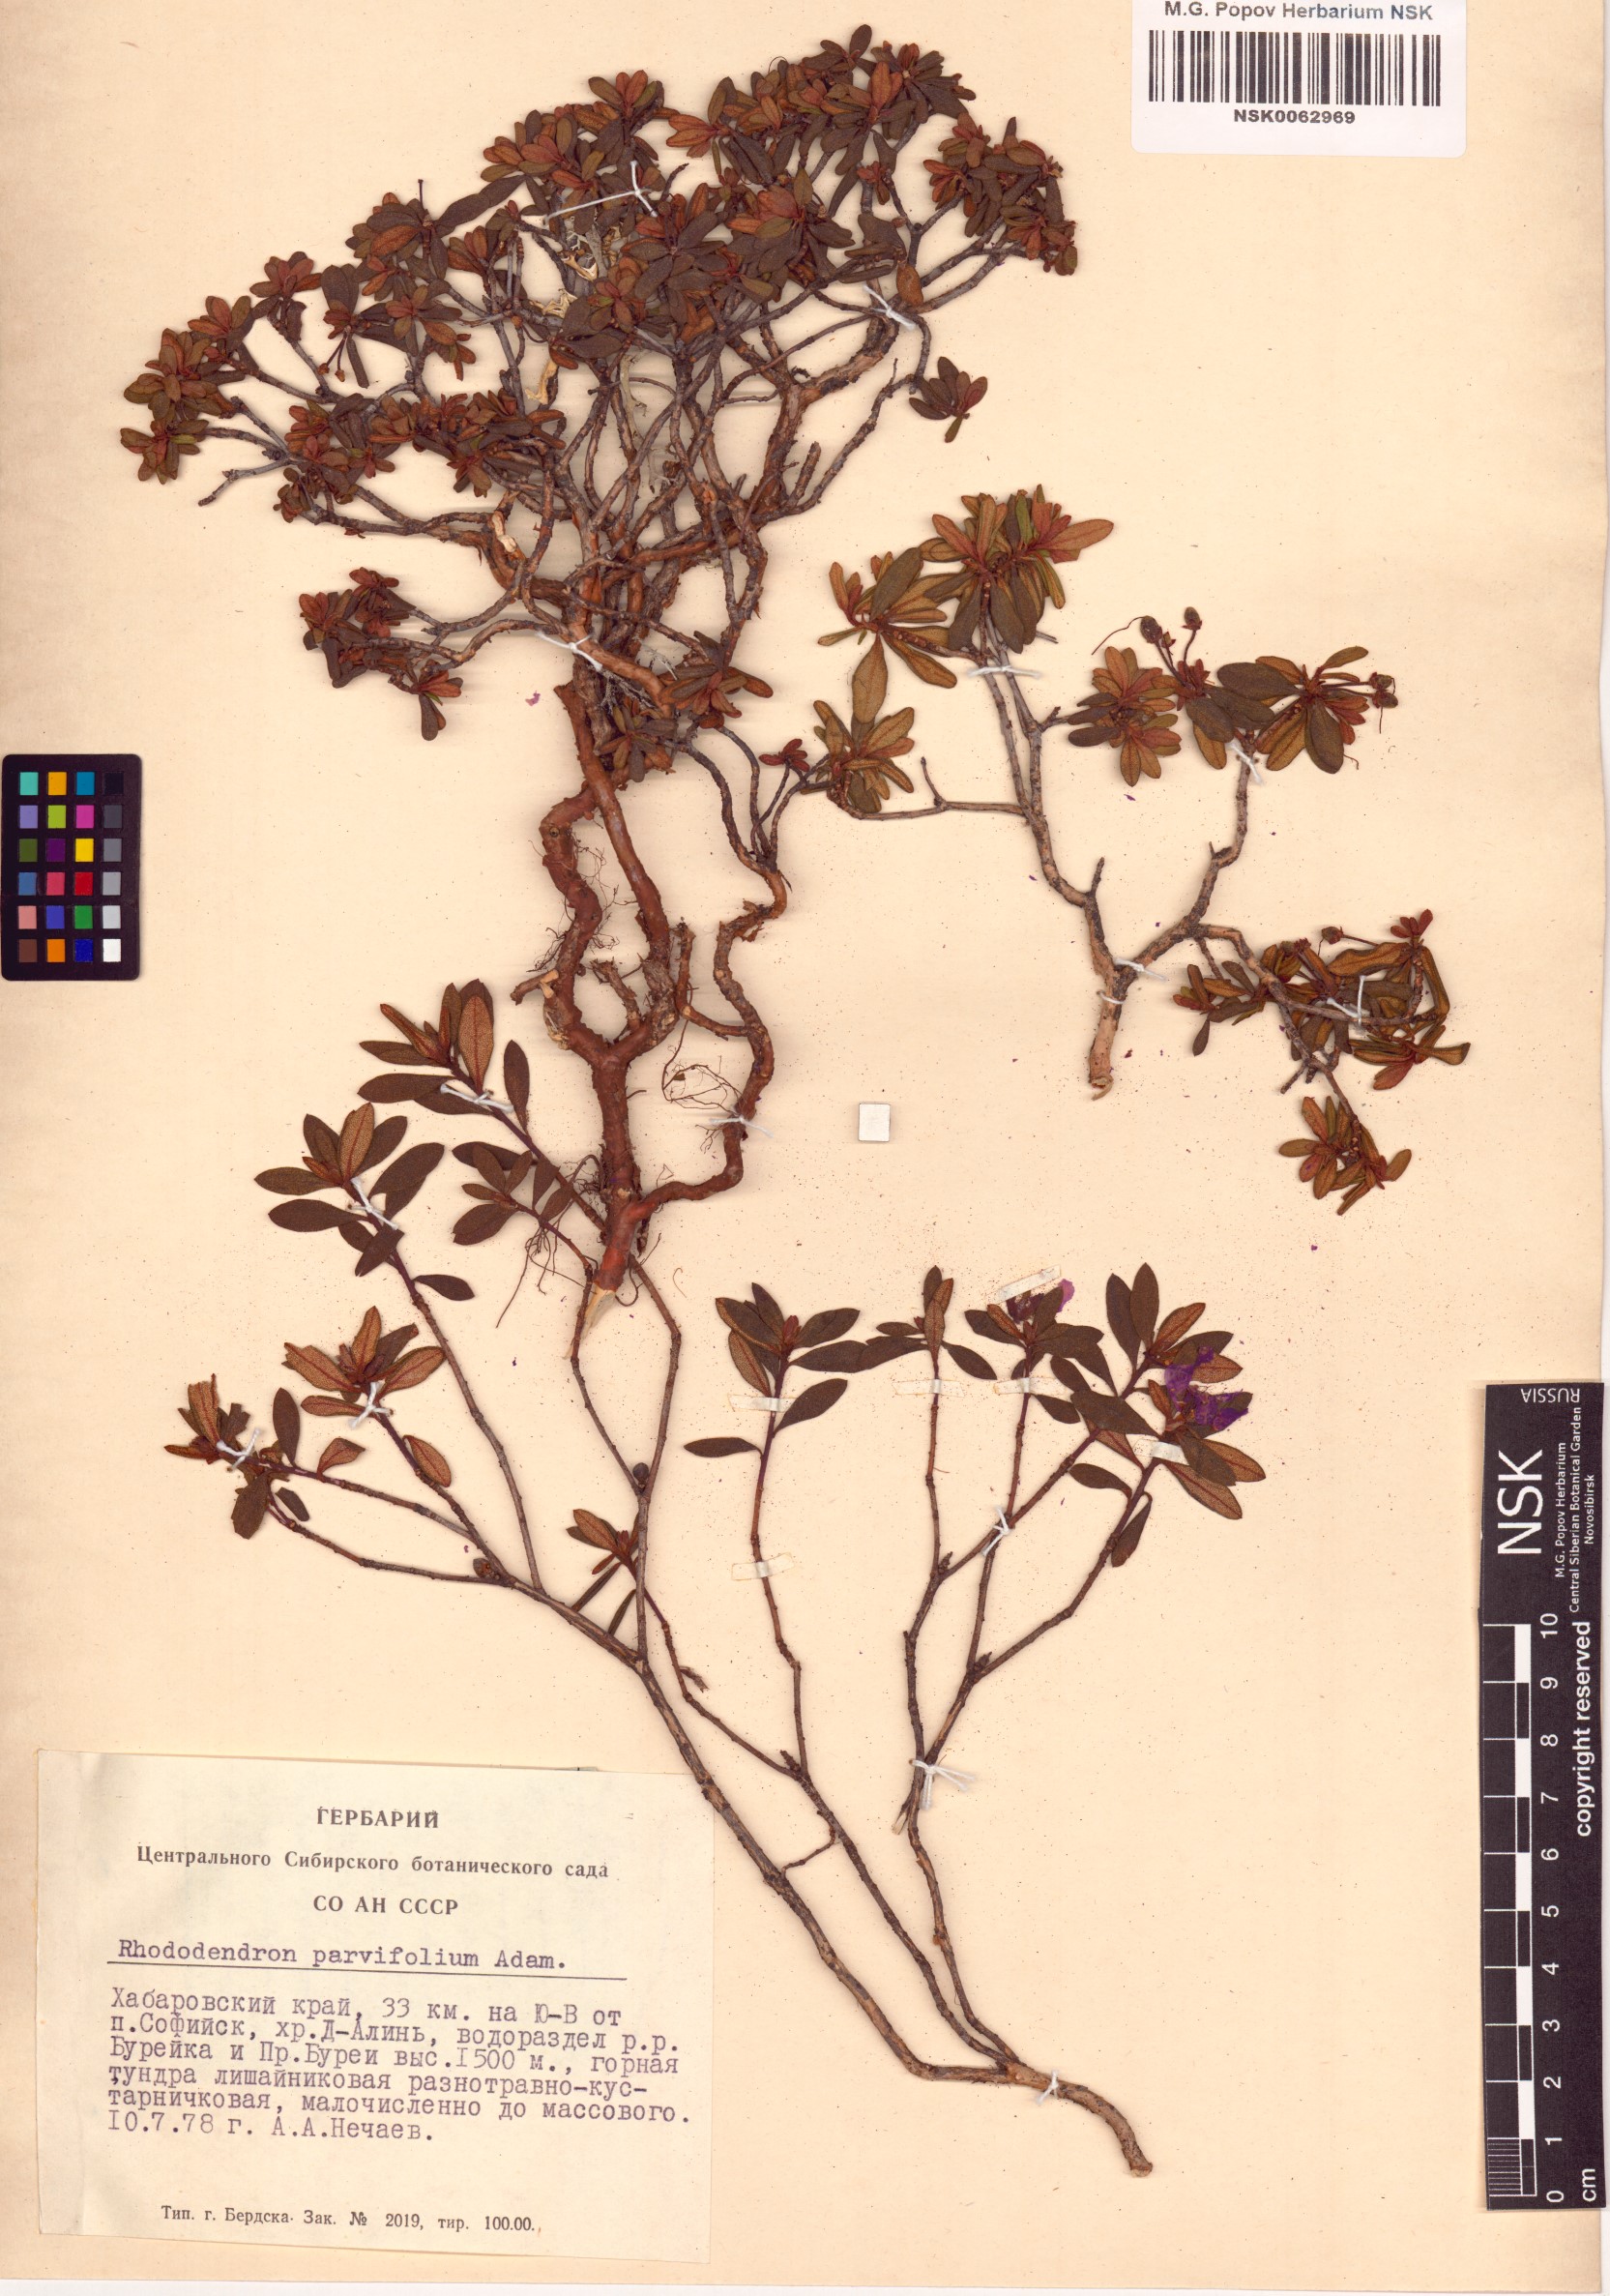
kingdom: Plantae
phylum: Tracheophyta
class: Magnoliopsida
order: Ericales
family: Ericaceae
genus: Rhododendron
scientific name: Rhododendron parvifolium
